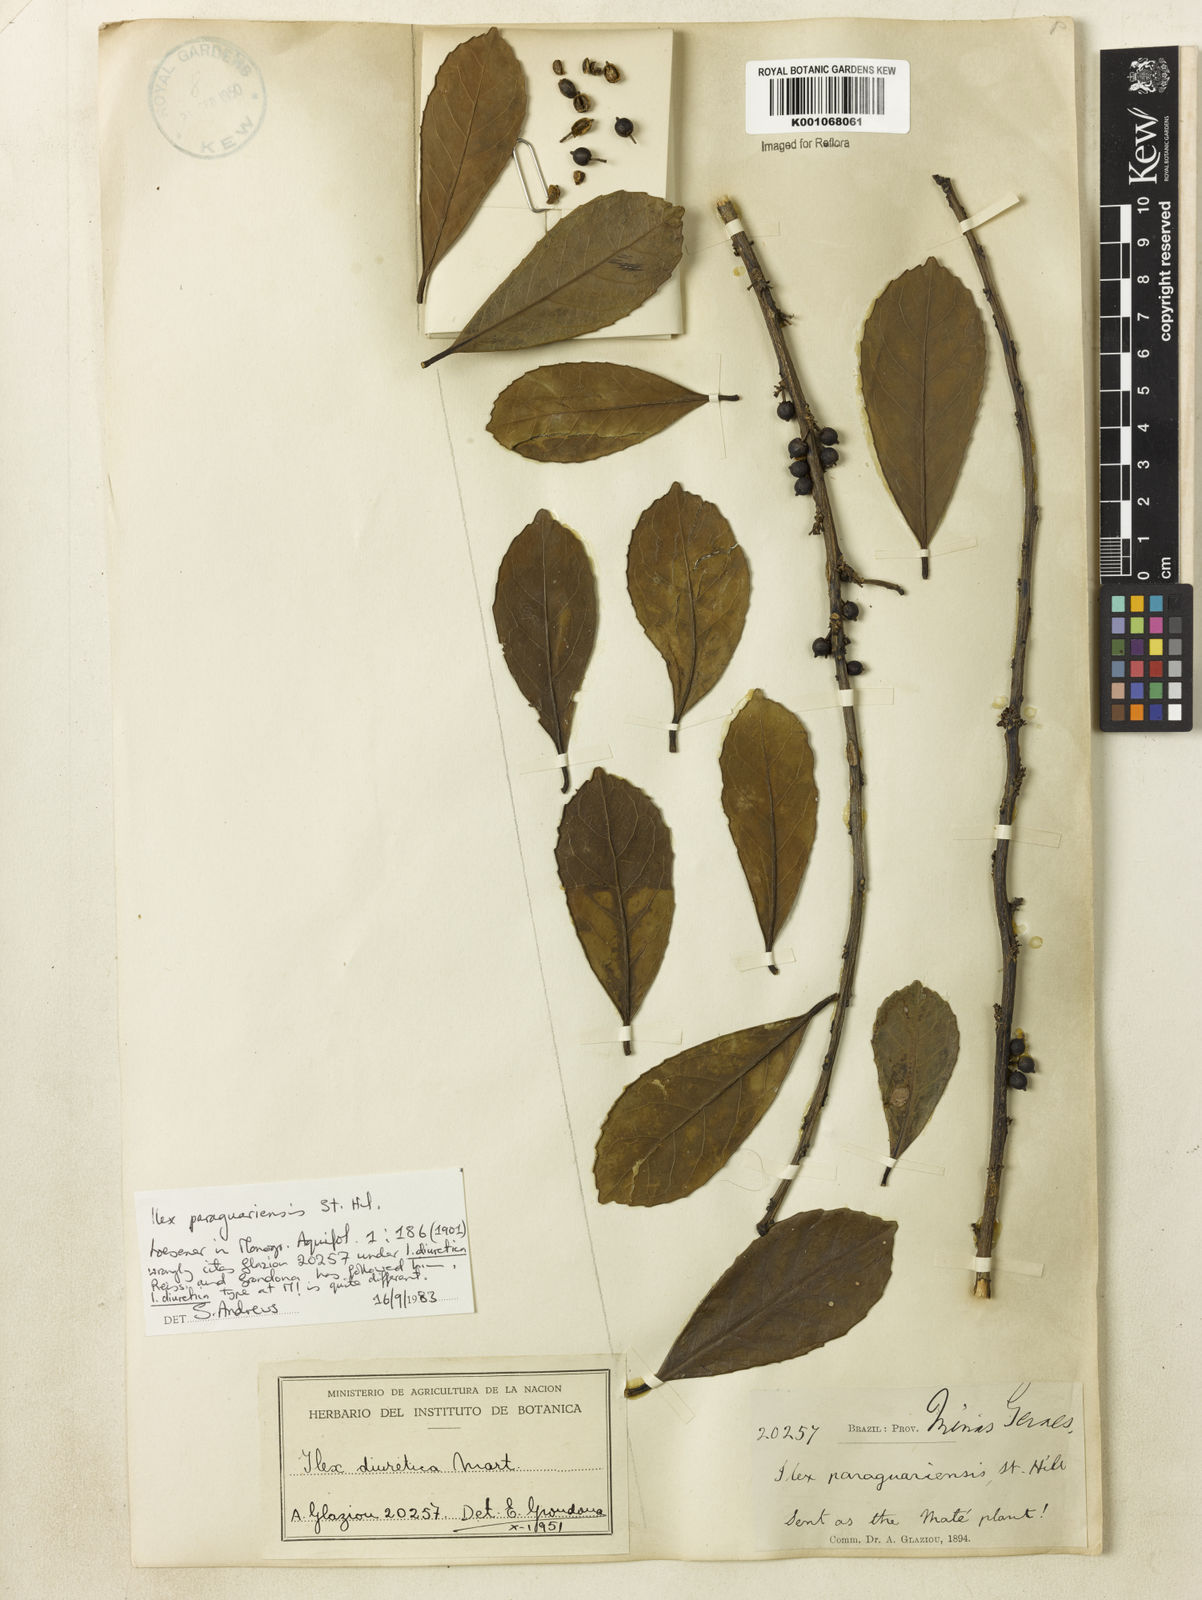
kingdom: Plantae
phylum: Tracheophyta
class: Magnoliopsida
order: Aquifoliales
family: Aquifoliaceae
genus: Ilex
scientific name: Ilex paraguariensis
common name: Paraguay tea
